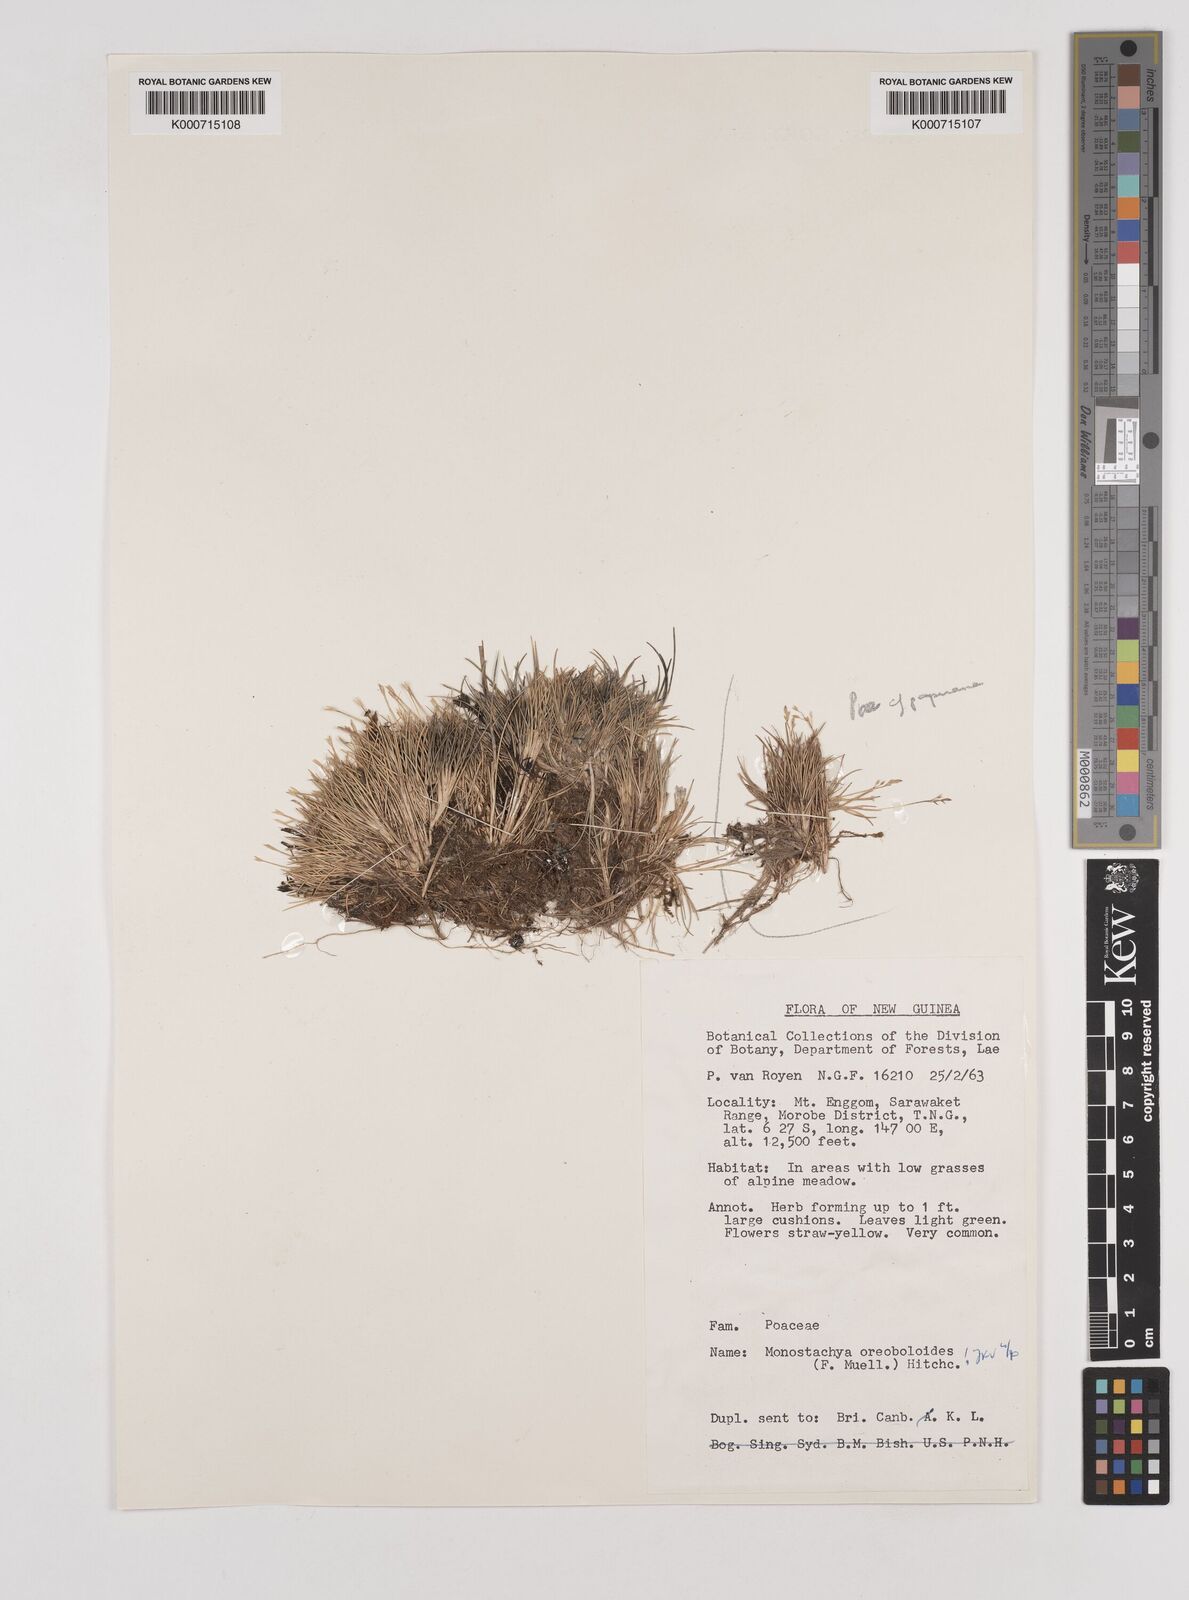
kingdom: Plantae
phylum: Tracheophyta
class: Liliopsida
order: Poales
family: Poaceae
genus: Rytidosperma
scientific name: Rytidosperma oreoboloides
